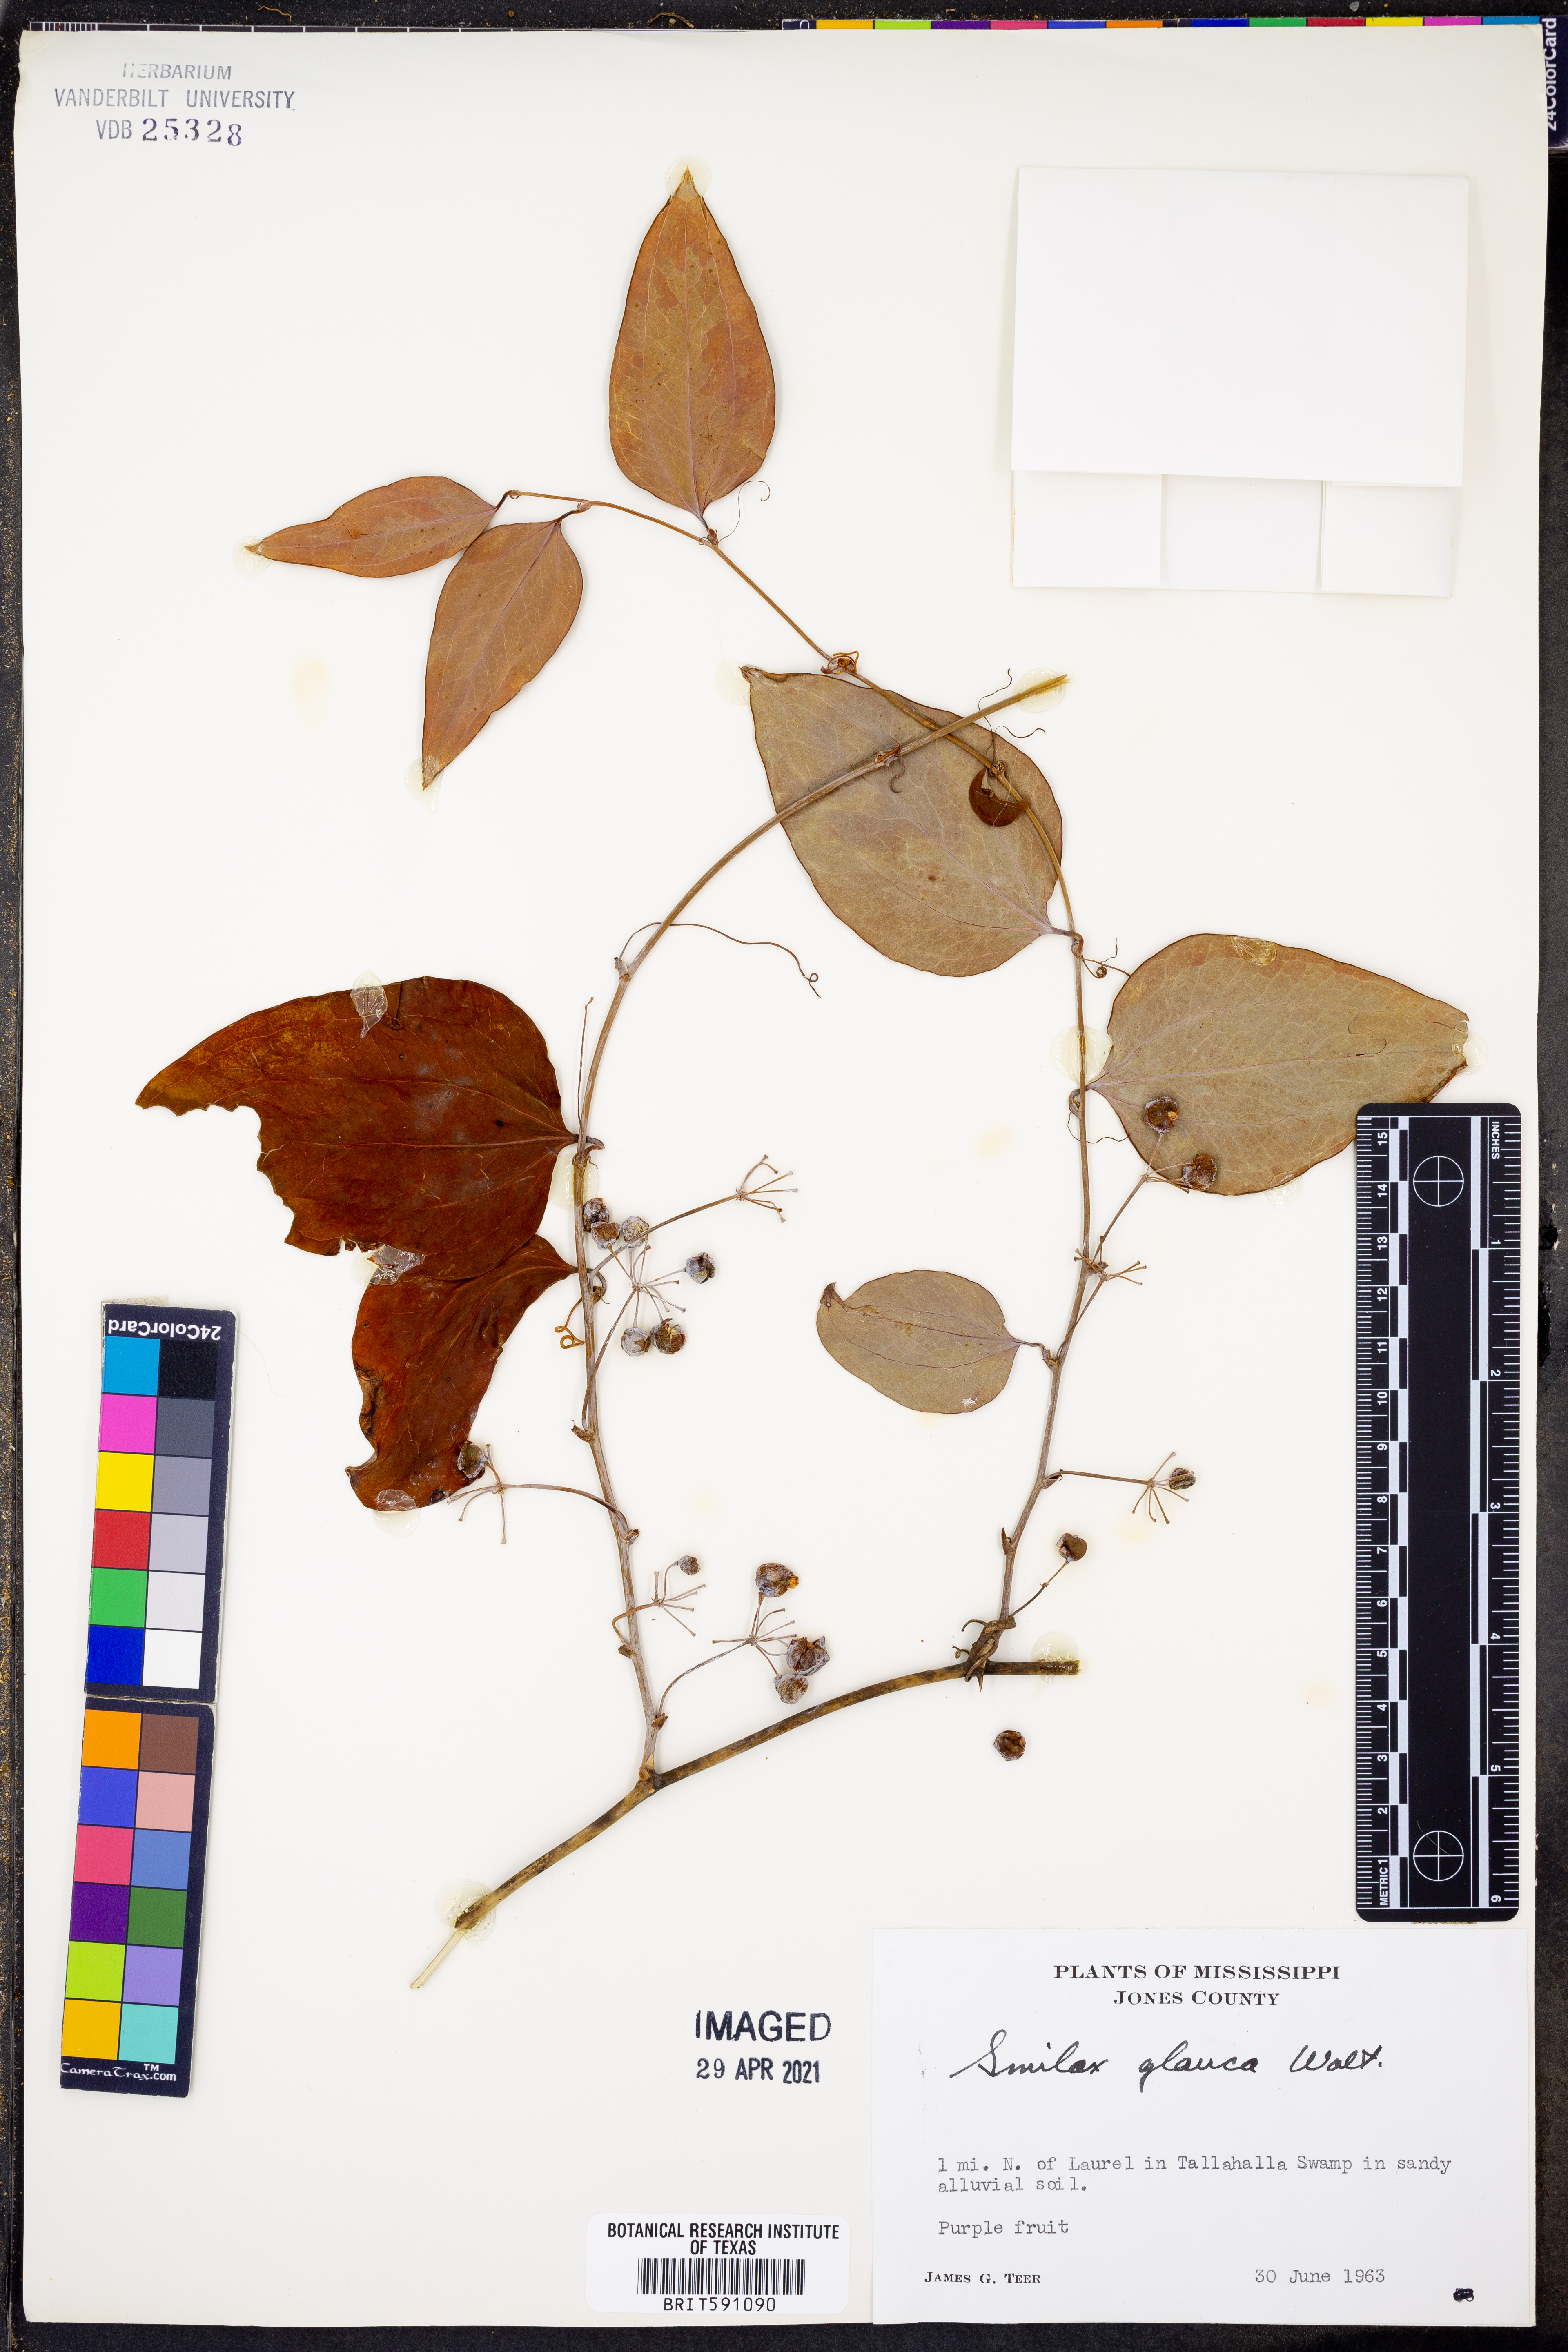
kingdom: Plantae
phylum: Tracheophyta
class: Liliopsida
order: Liliales
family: Smilacaceae
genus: Smilax
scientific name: Smilax glauca
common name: Cat greenbrier
